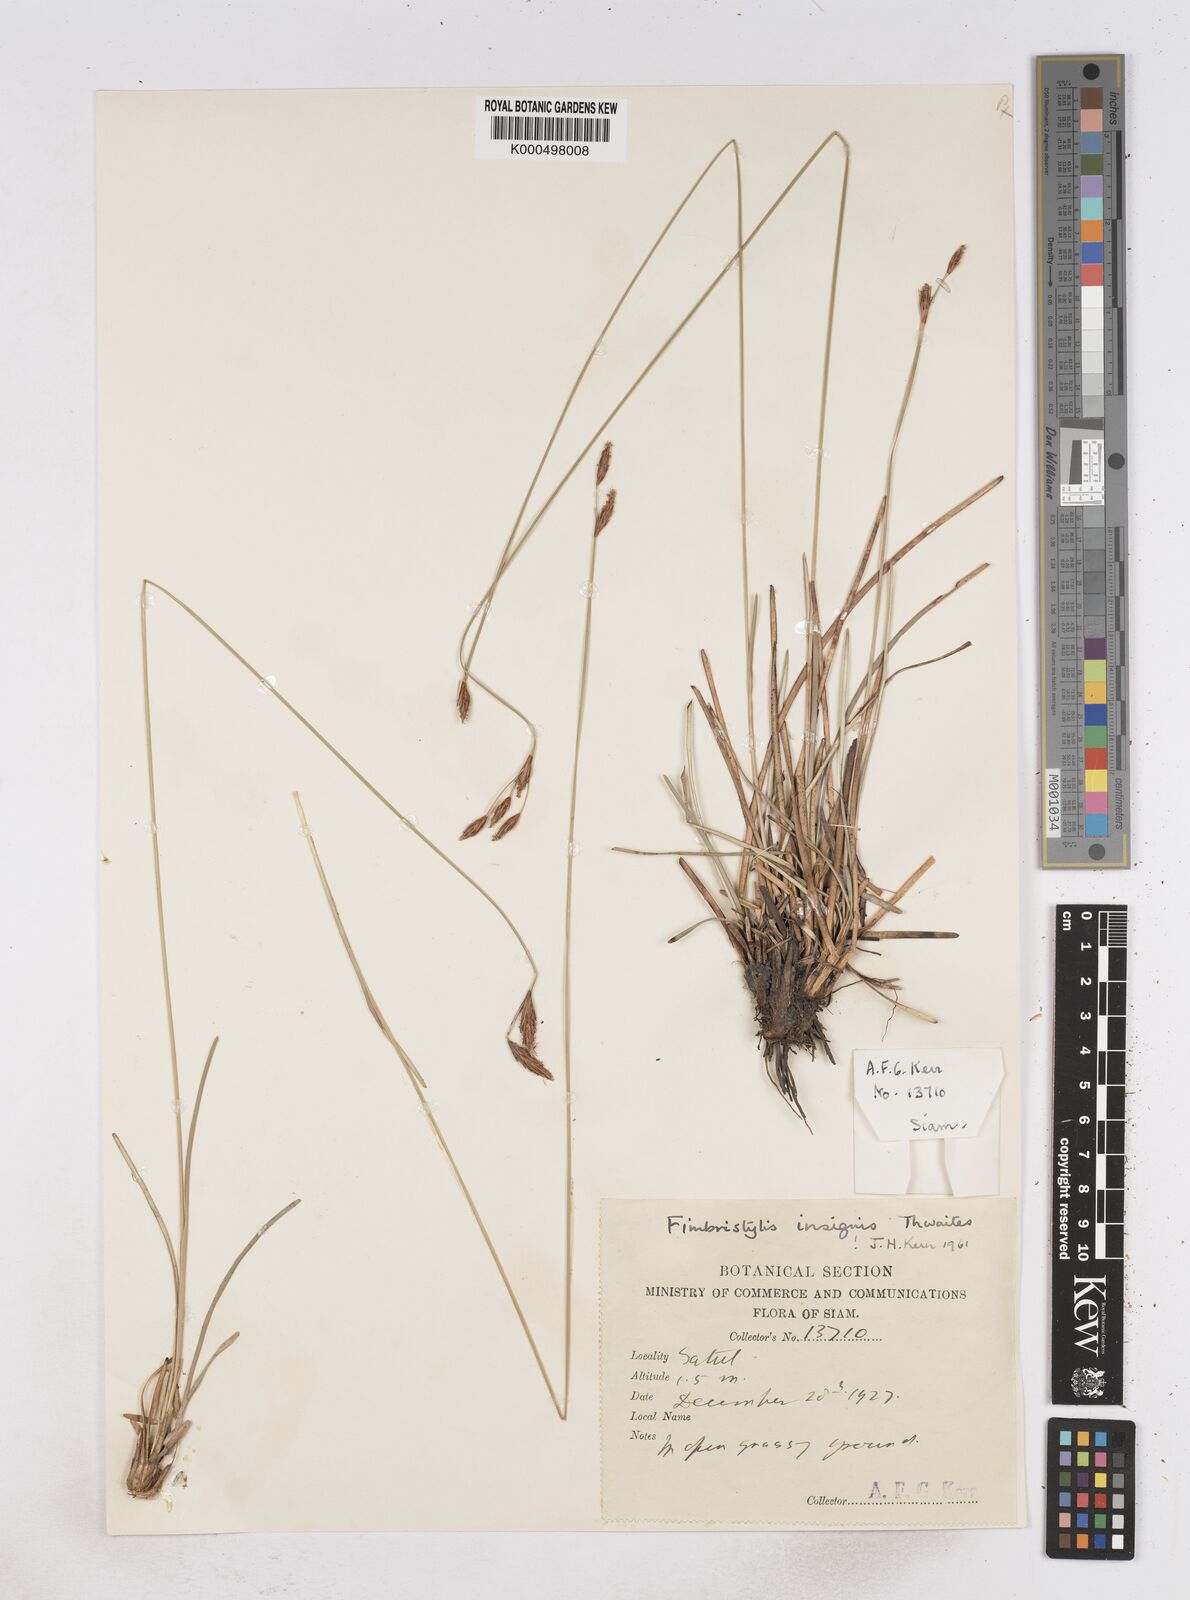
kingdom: Plantae
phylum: Tracheophyta
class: Liliopsida
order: Poales
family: Cyperaceae
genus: Fimbristylis
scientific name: Fimbristylis insignis
